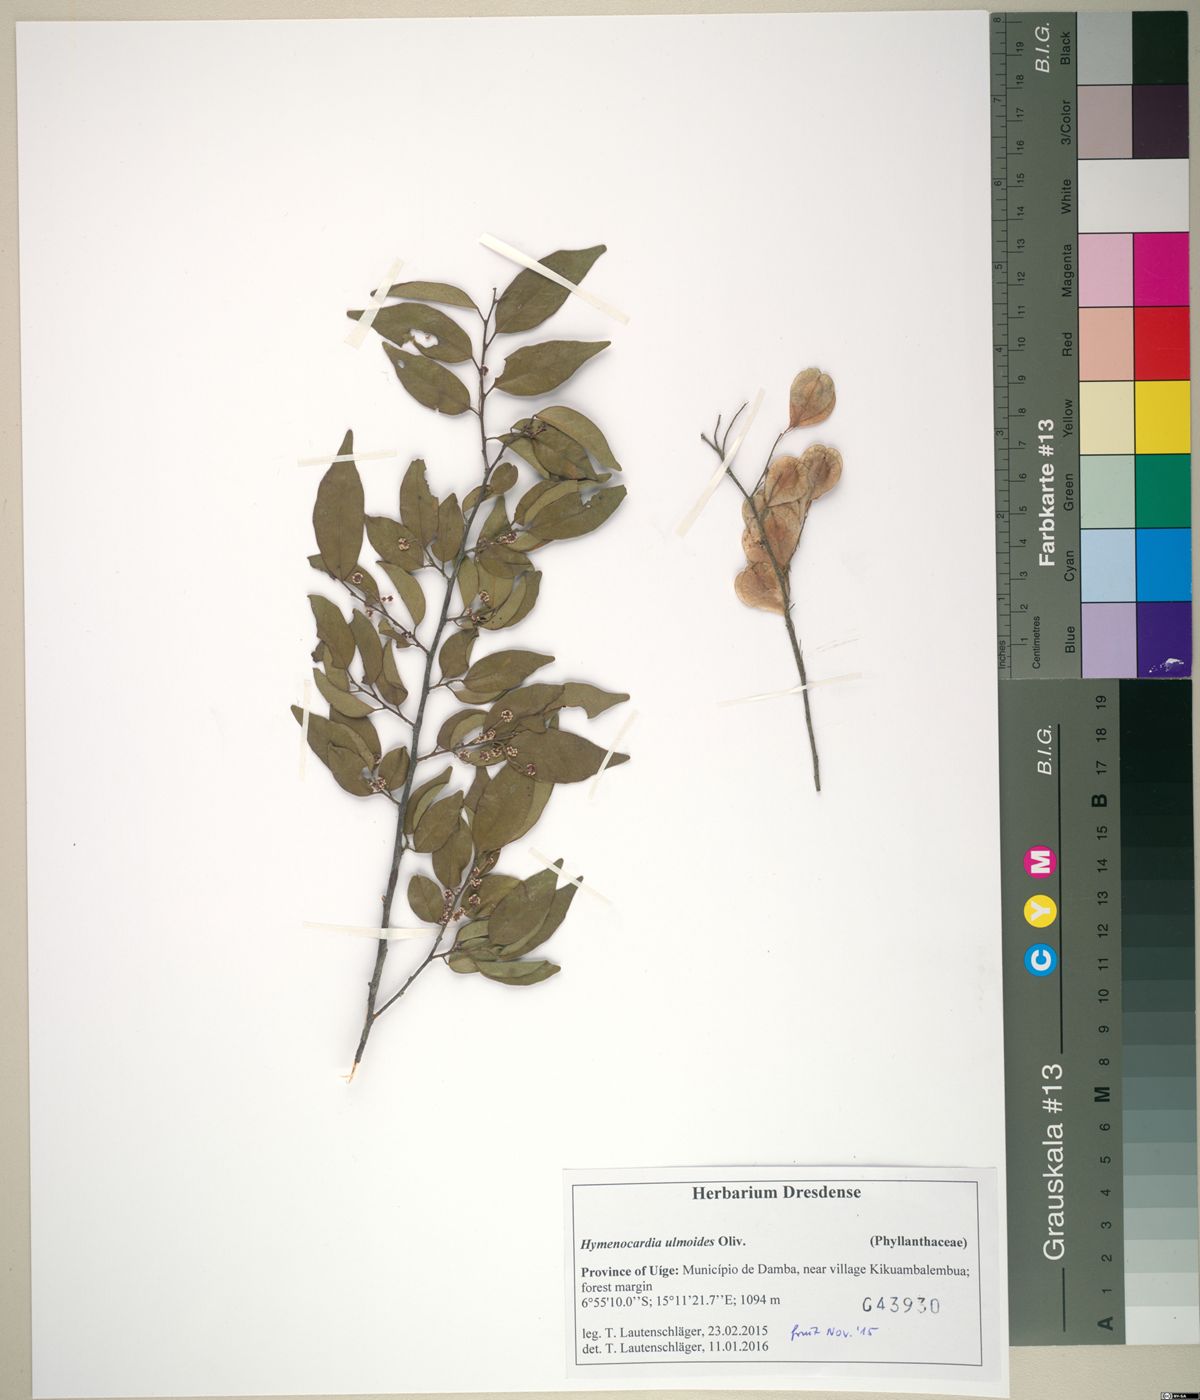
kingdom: Plantae
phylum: Tracheophyta
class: Magnoliopsida
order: Malpighiales
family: Phyllanthaceae
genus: Hymenocardia
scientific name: Hymenocardia ulmoides
